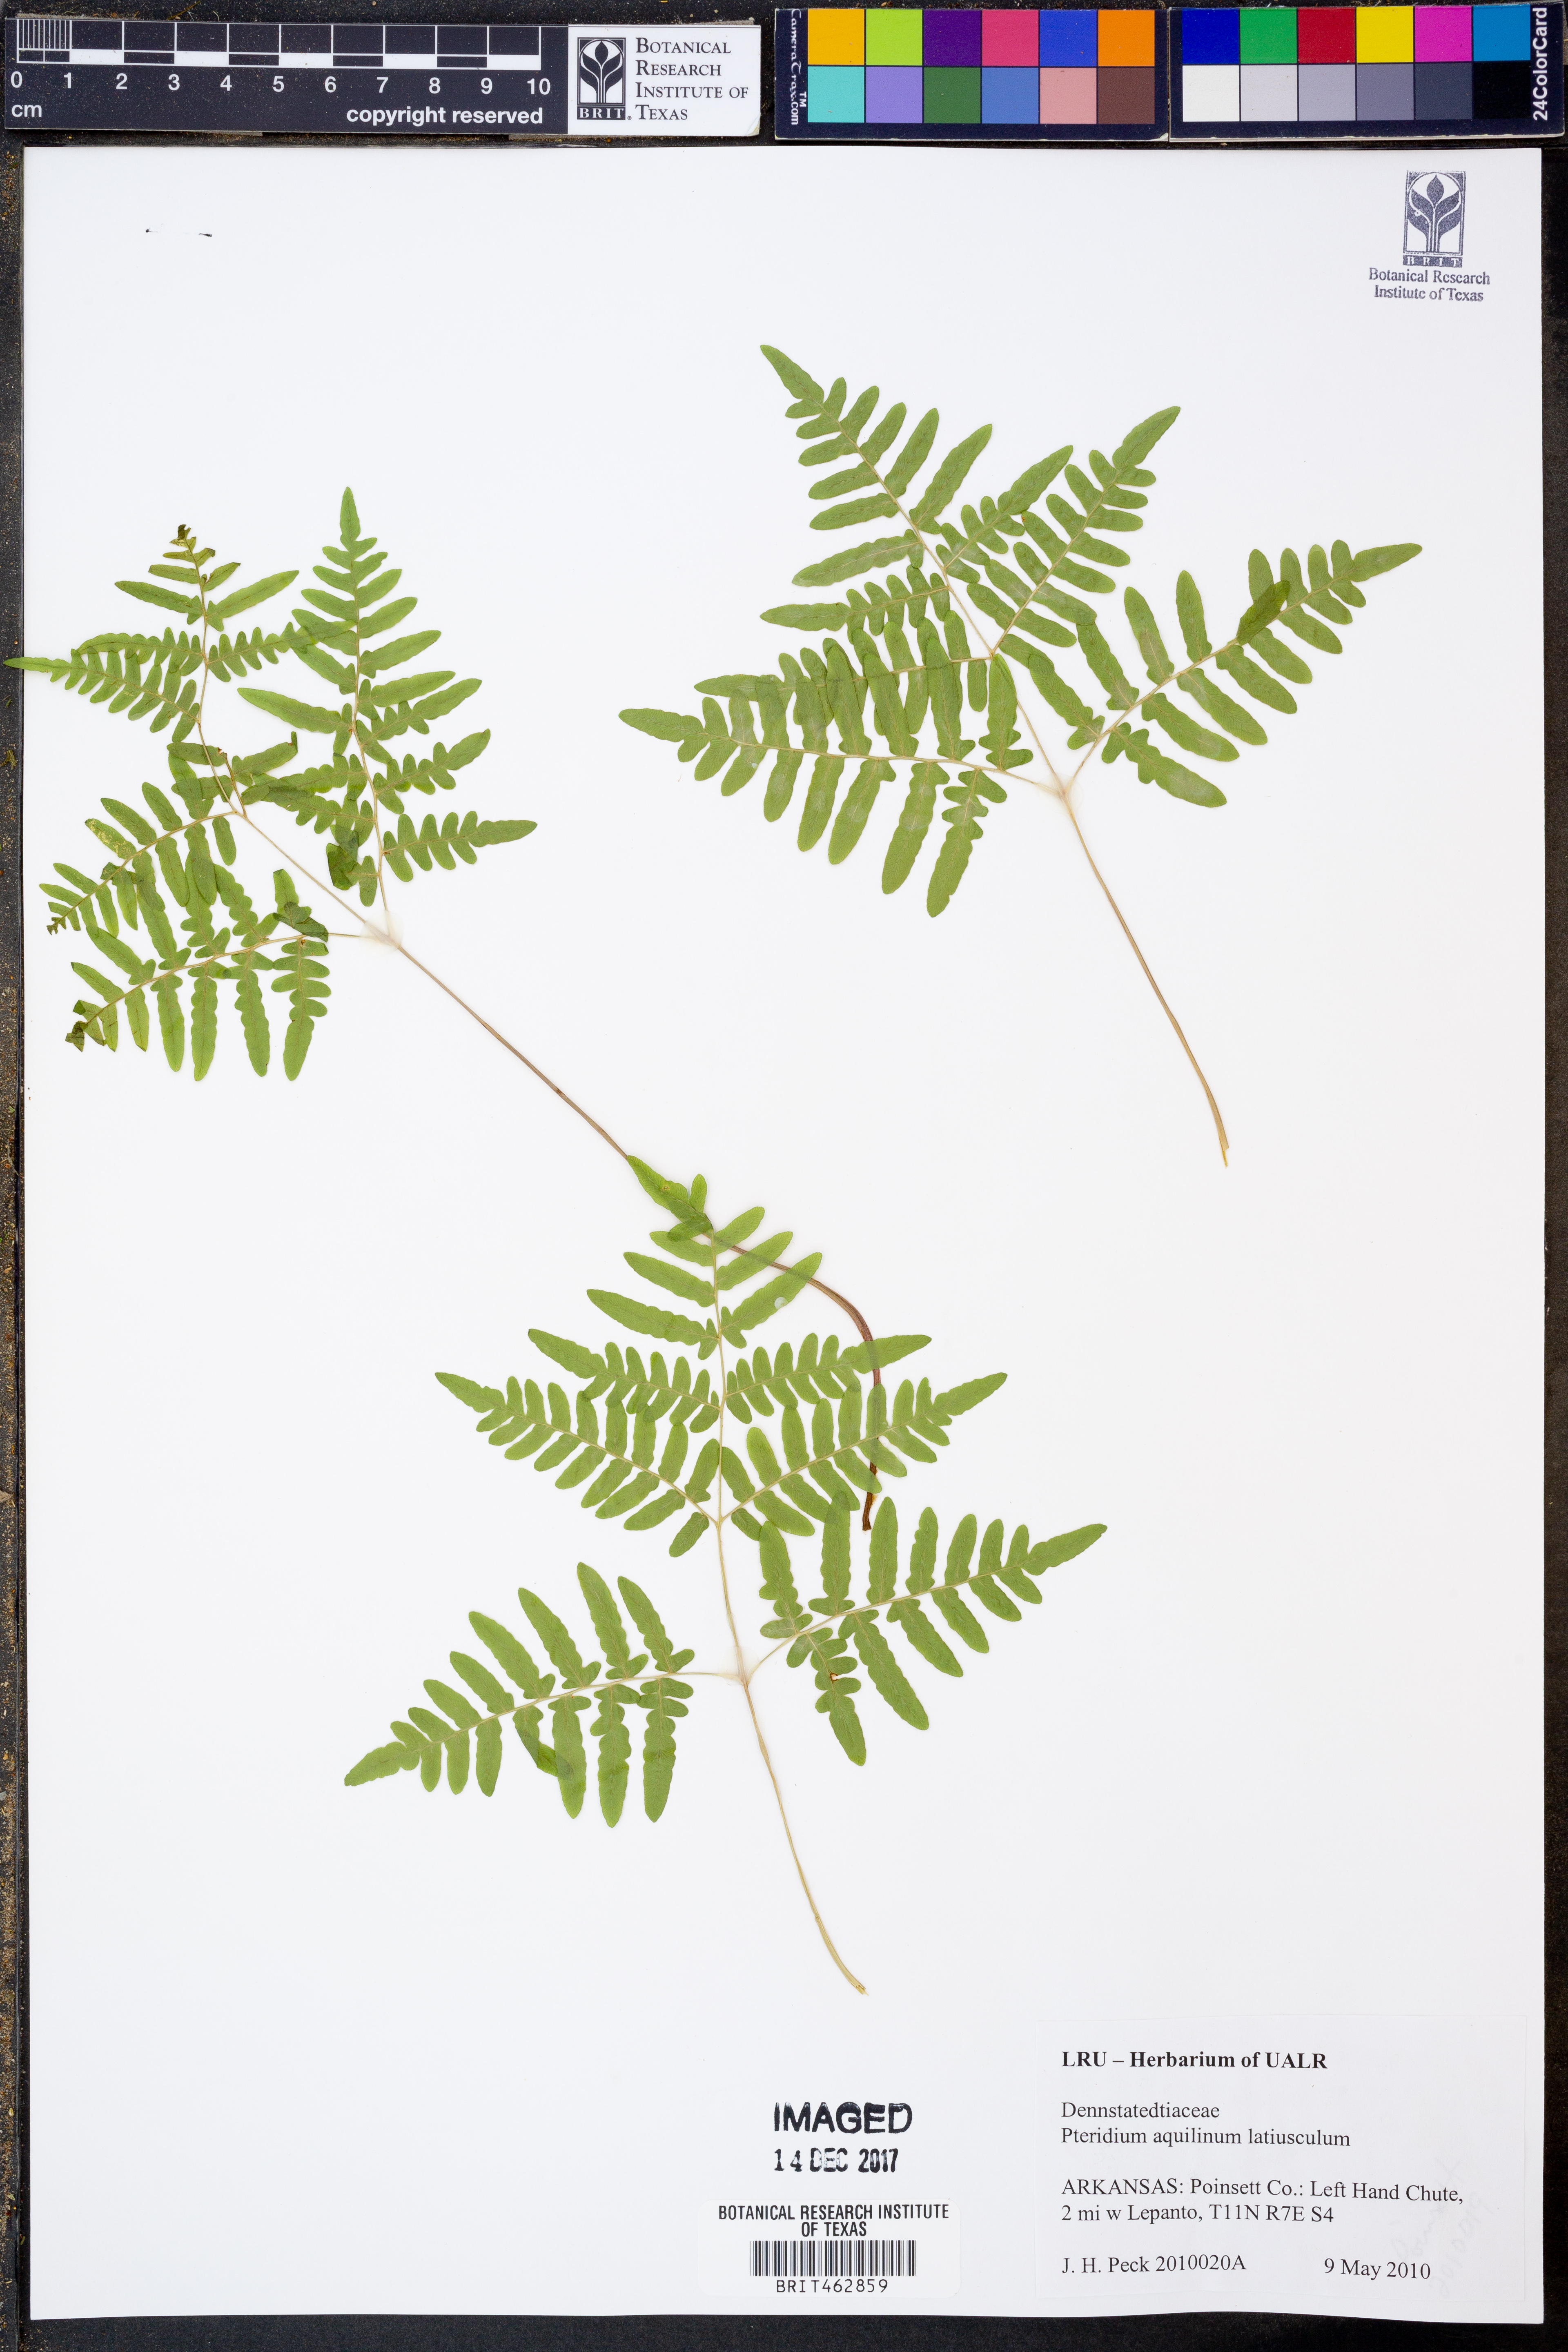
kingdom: Plantae
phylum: Tracheophyta
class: Polypodiopsida
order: Polypodiales
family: Dennstaedtiaceae
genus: Pteridium
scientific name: Pteridium aquilinum
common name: Bracken
